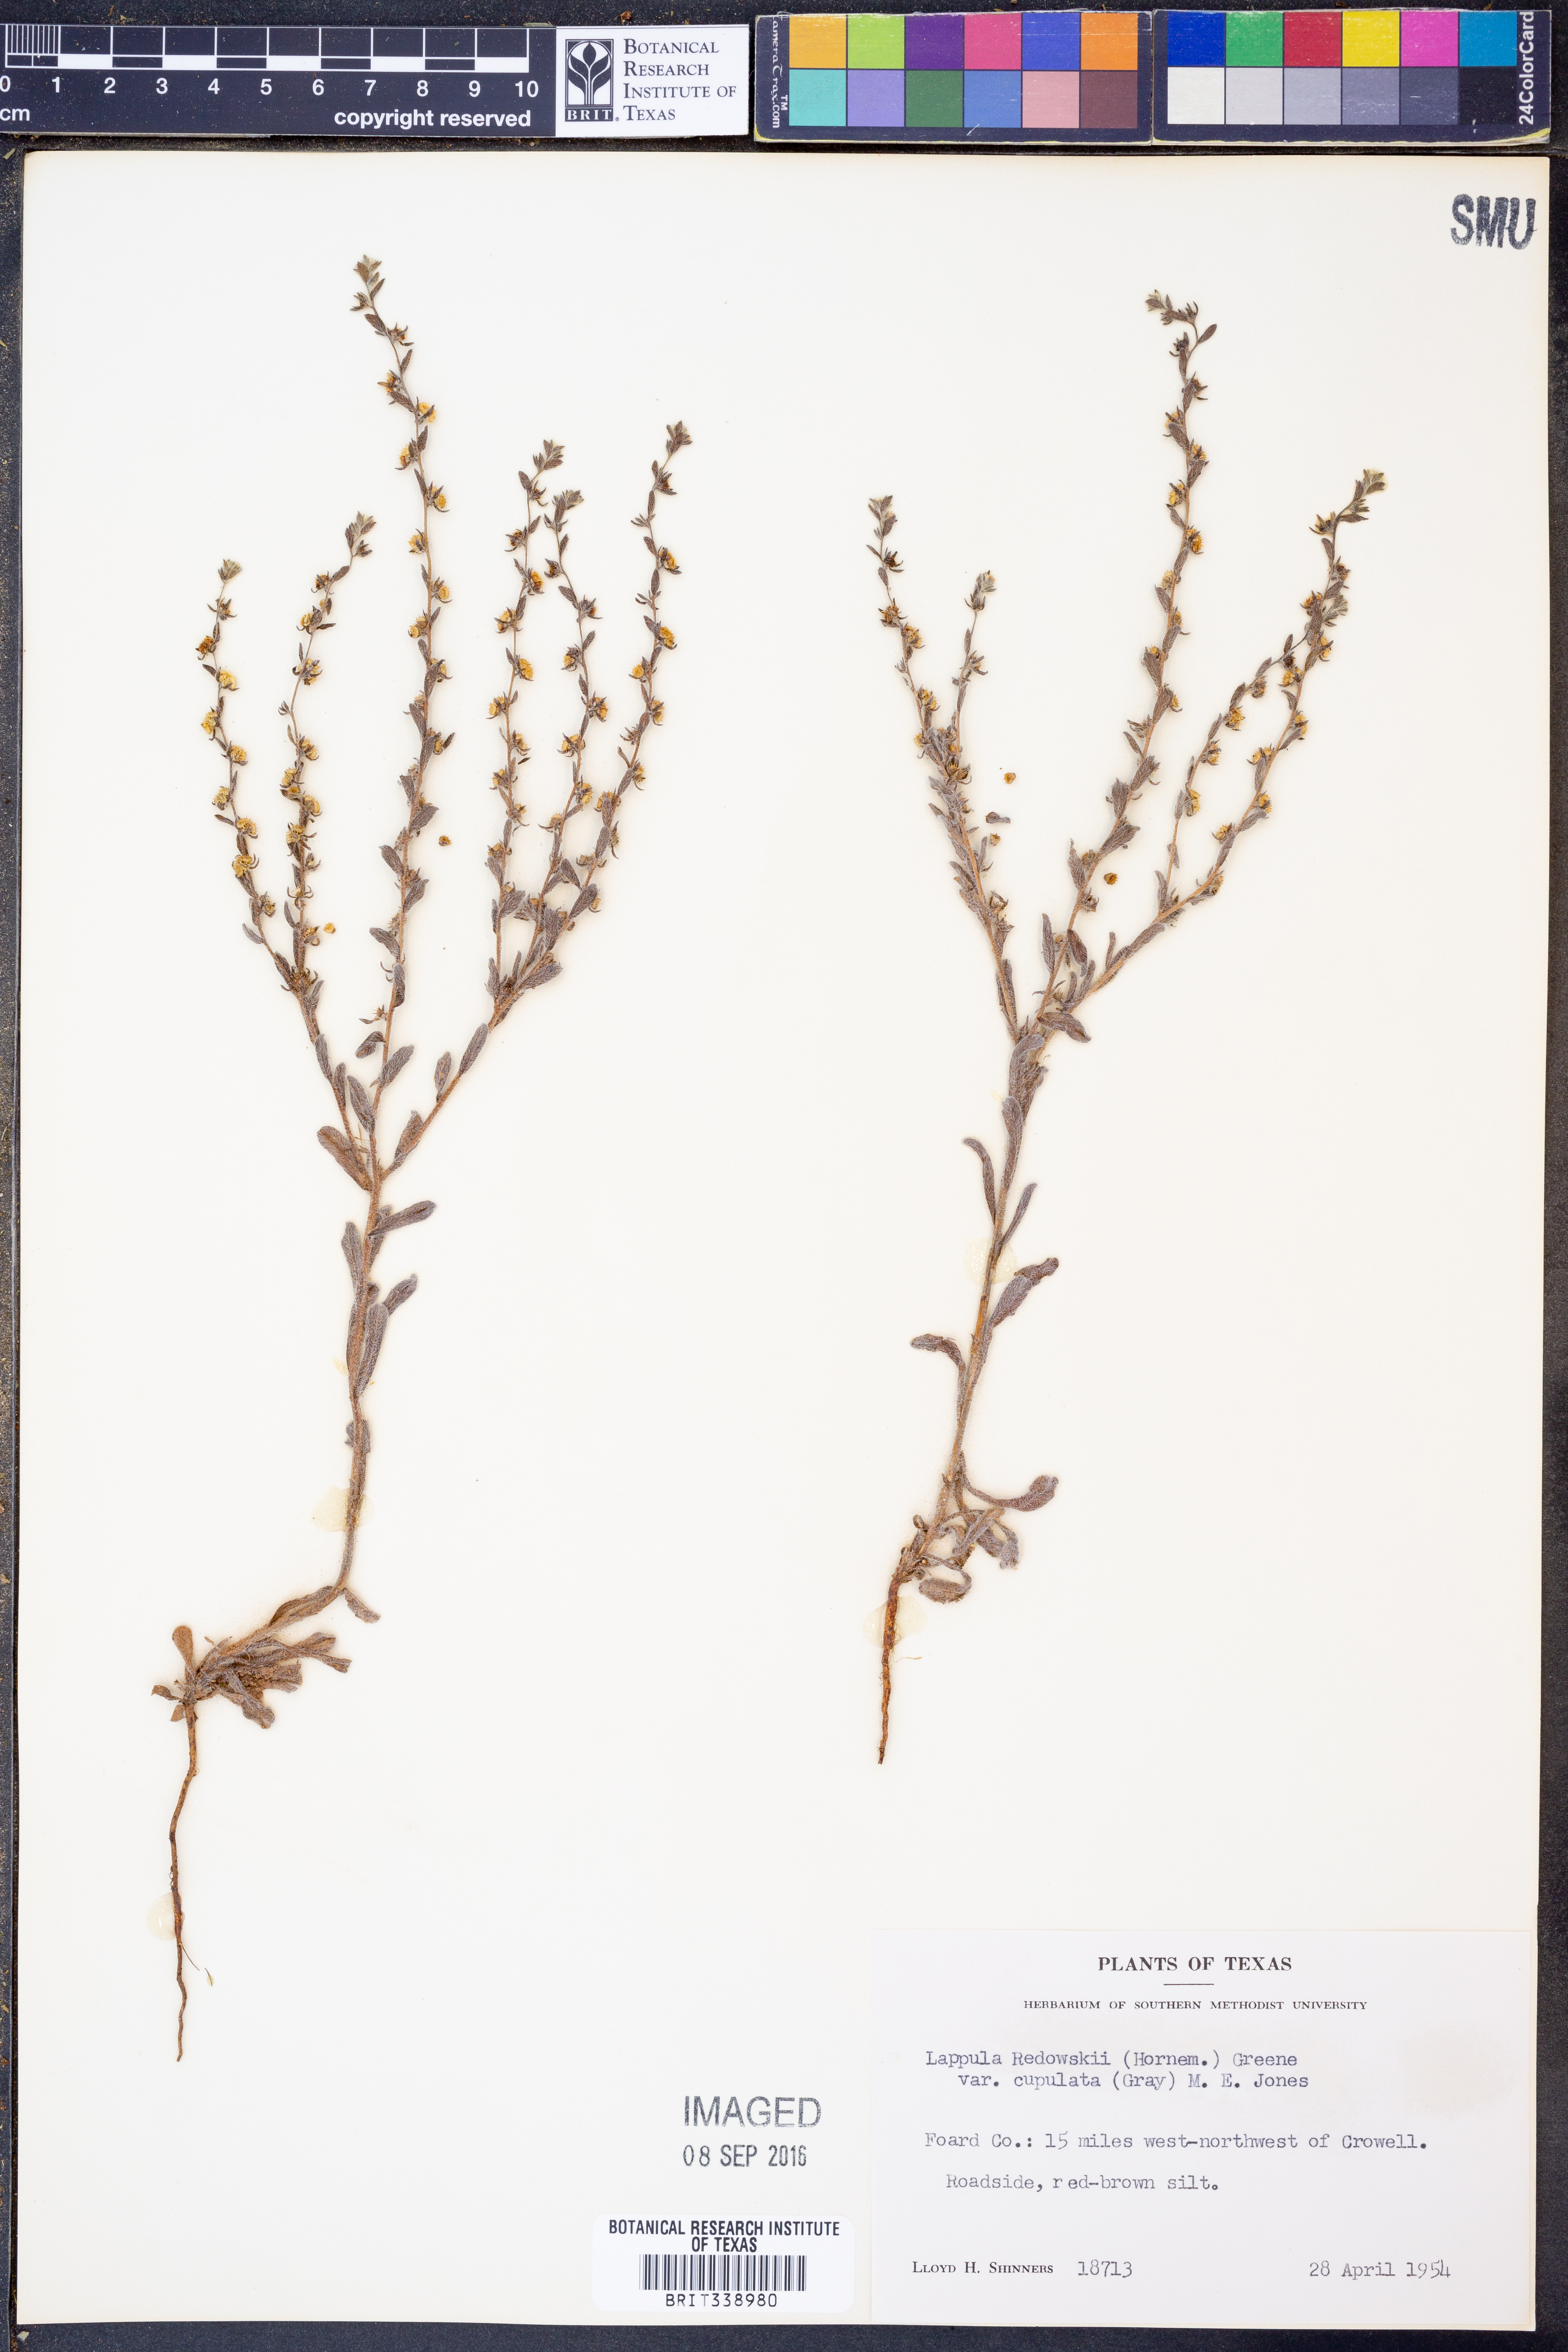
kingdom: Plantae
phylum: Tracheophyta
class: Magnoliopsida
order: Boraginales
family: Boraginaceae
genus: Lappula
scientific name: Lappula occidentalis
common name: Western stickseed
